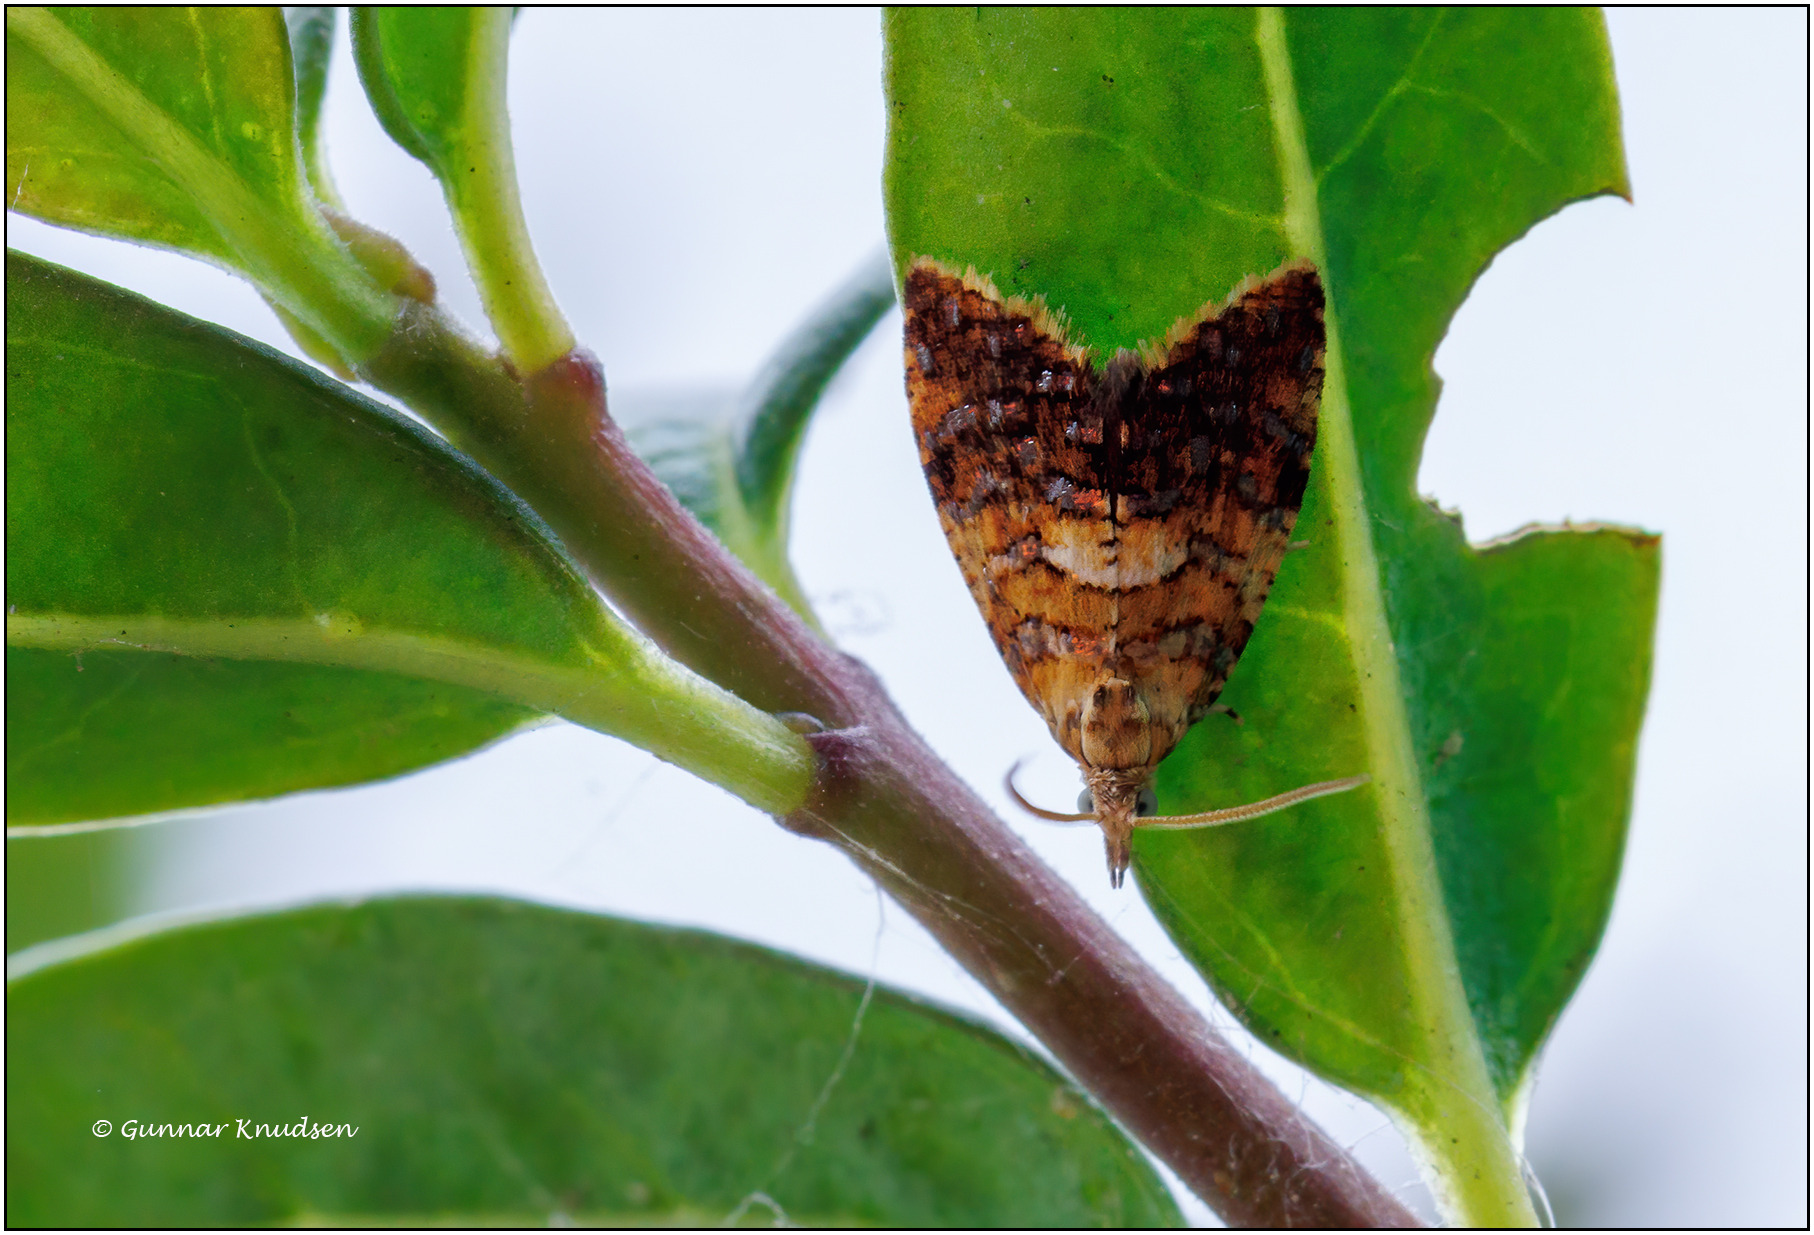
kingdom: Animalia
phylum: Arthropoda
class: Insecta
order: Lepidoptera
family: Tortricidae
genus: Pseudargyrotoza
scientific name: Pseudargyrotoza conwagana
